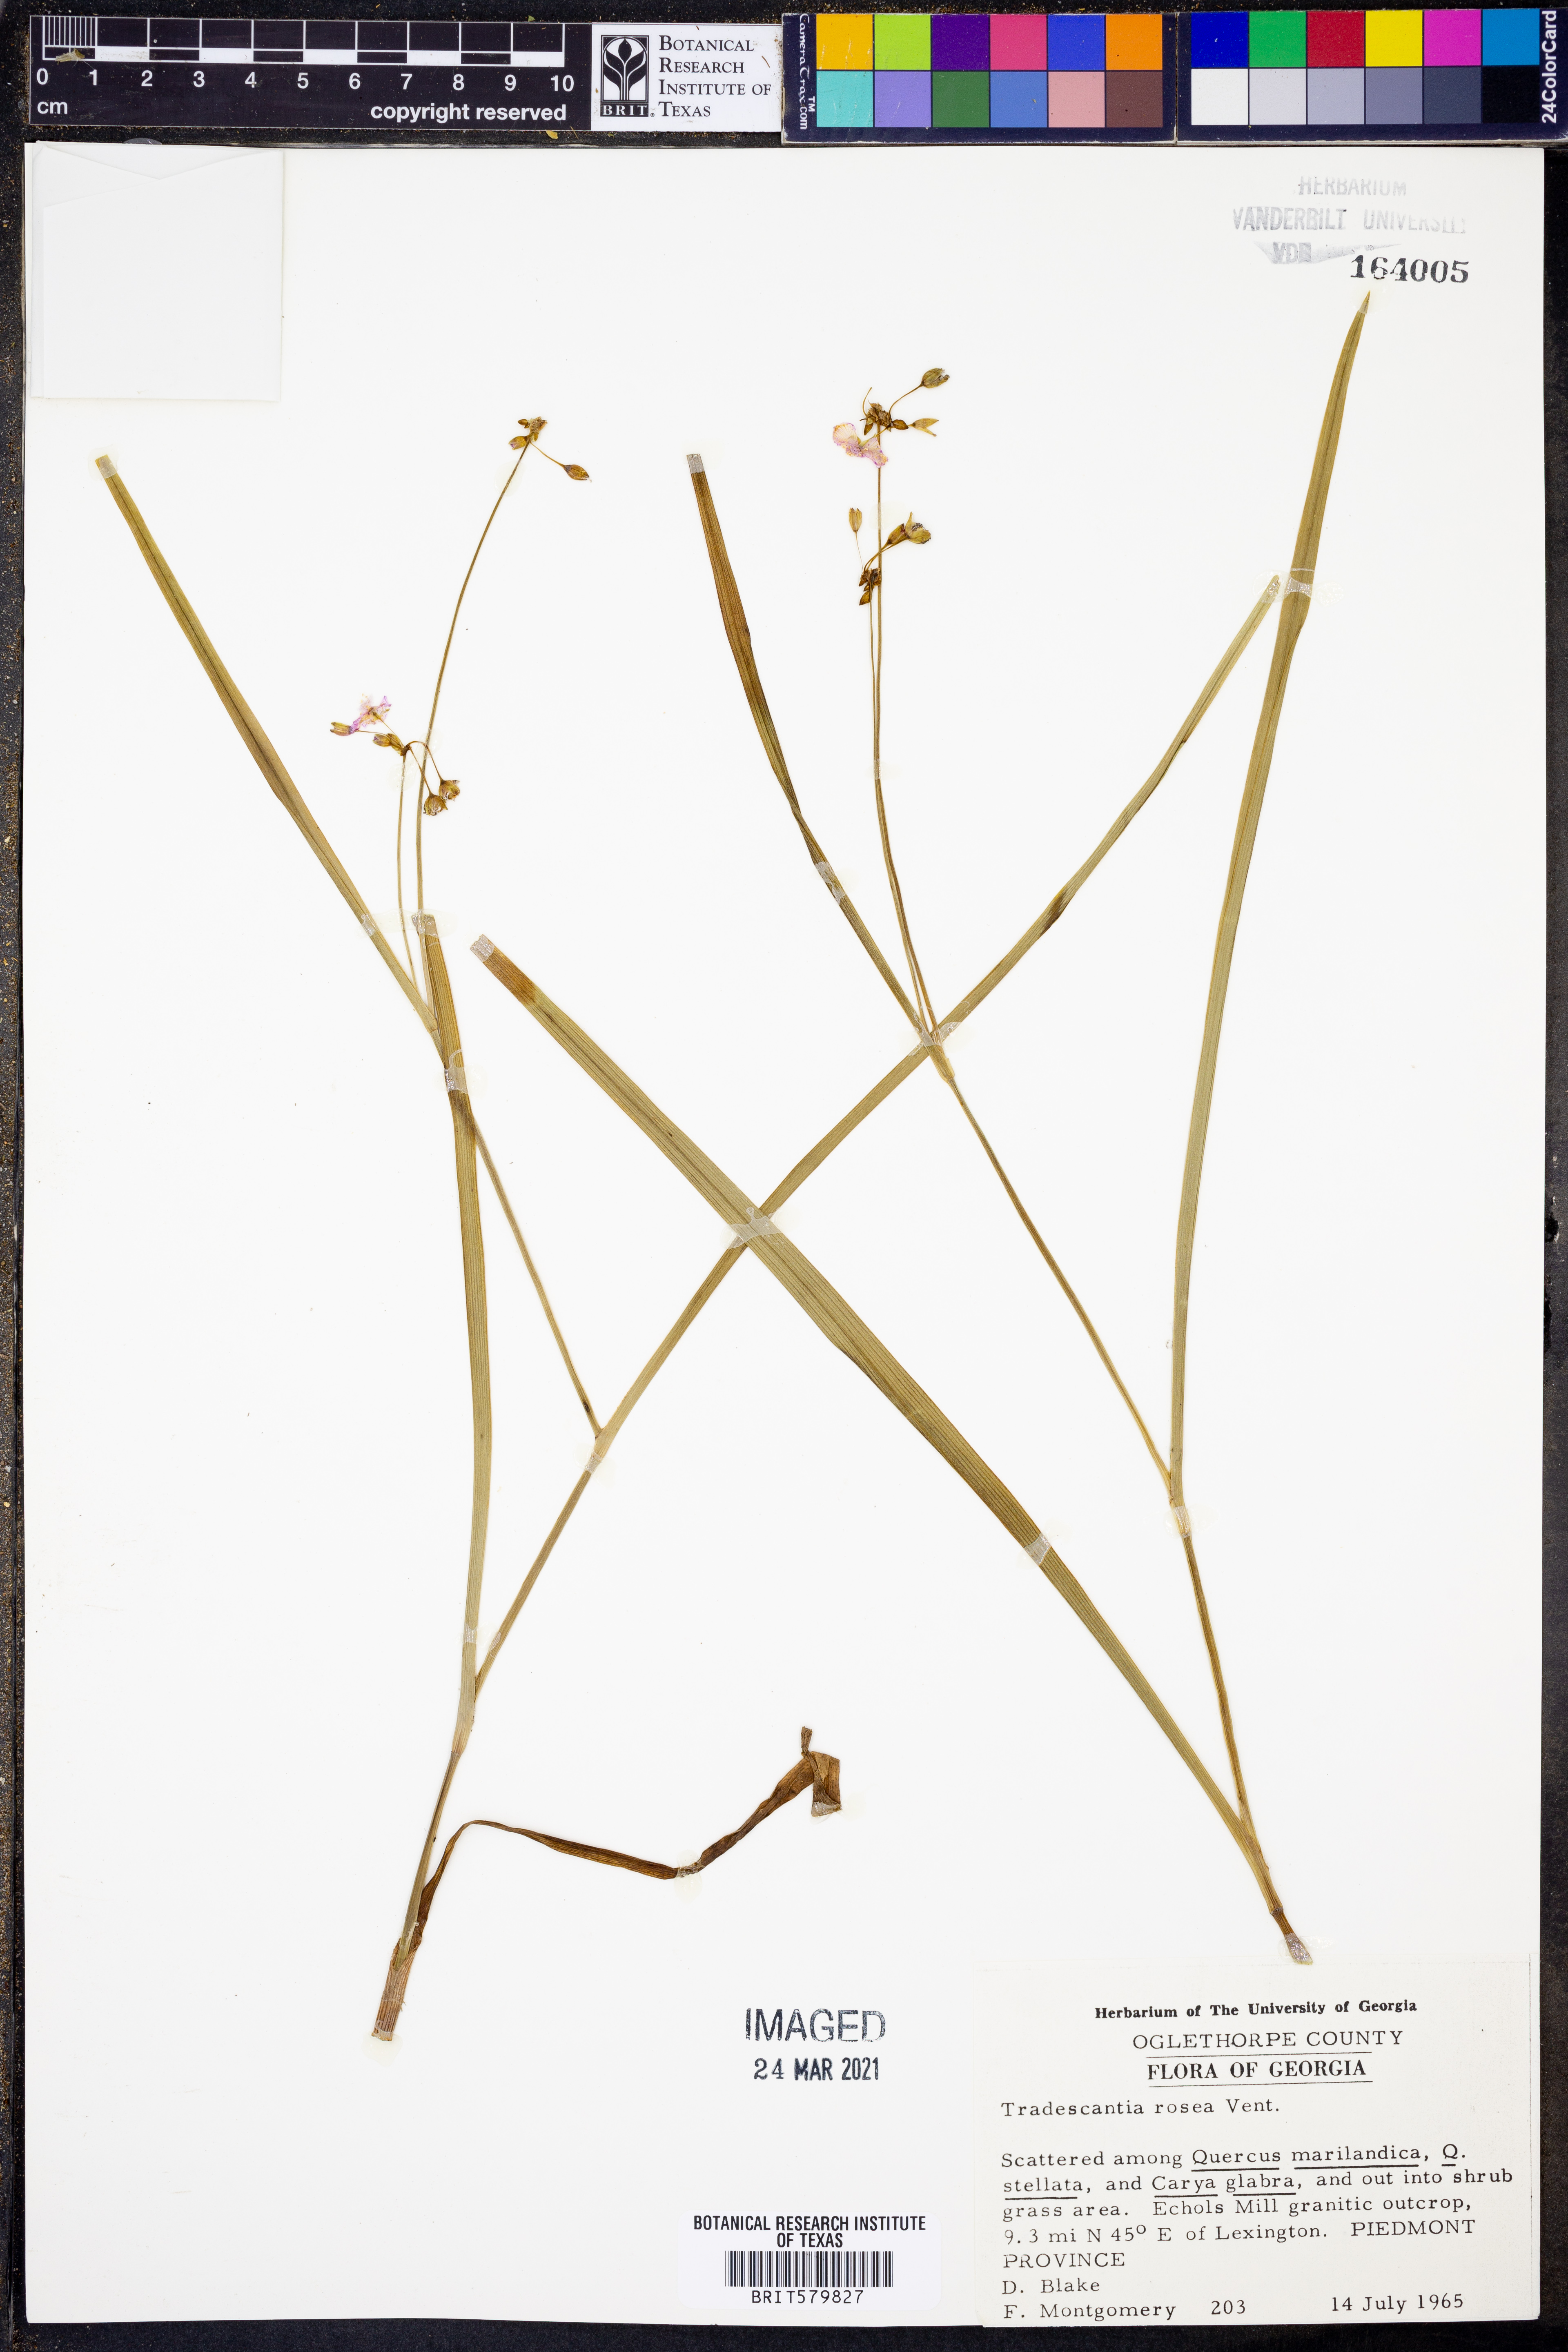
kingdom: Plantae
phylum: Tracheophyta
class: Liliopsida
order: Commelinales
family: Commelinaceae
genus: Callisia
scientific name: Callisia rosea
